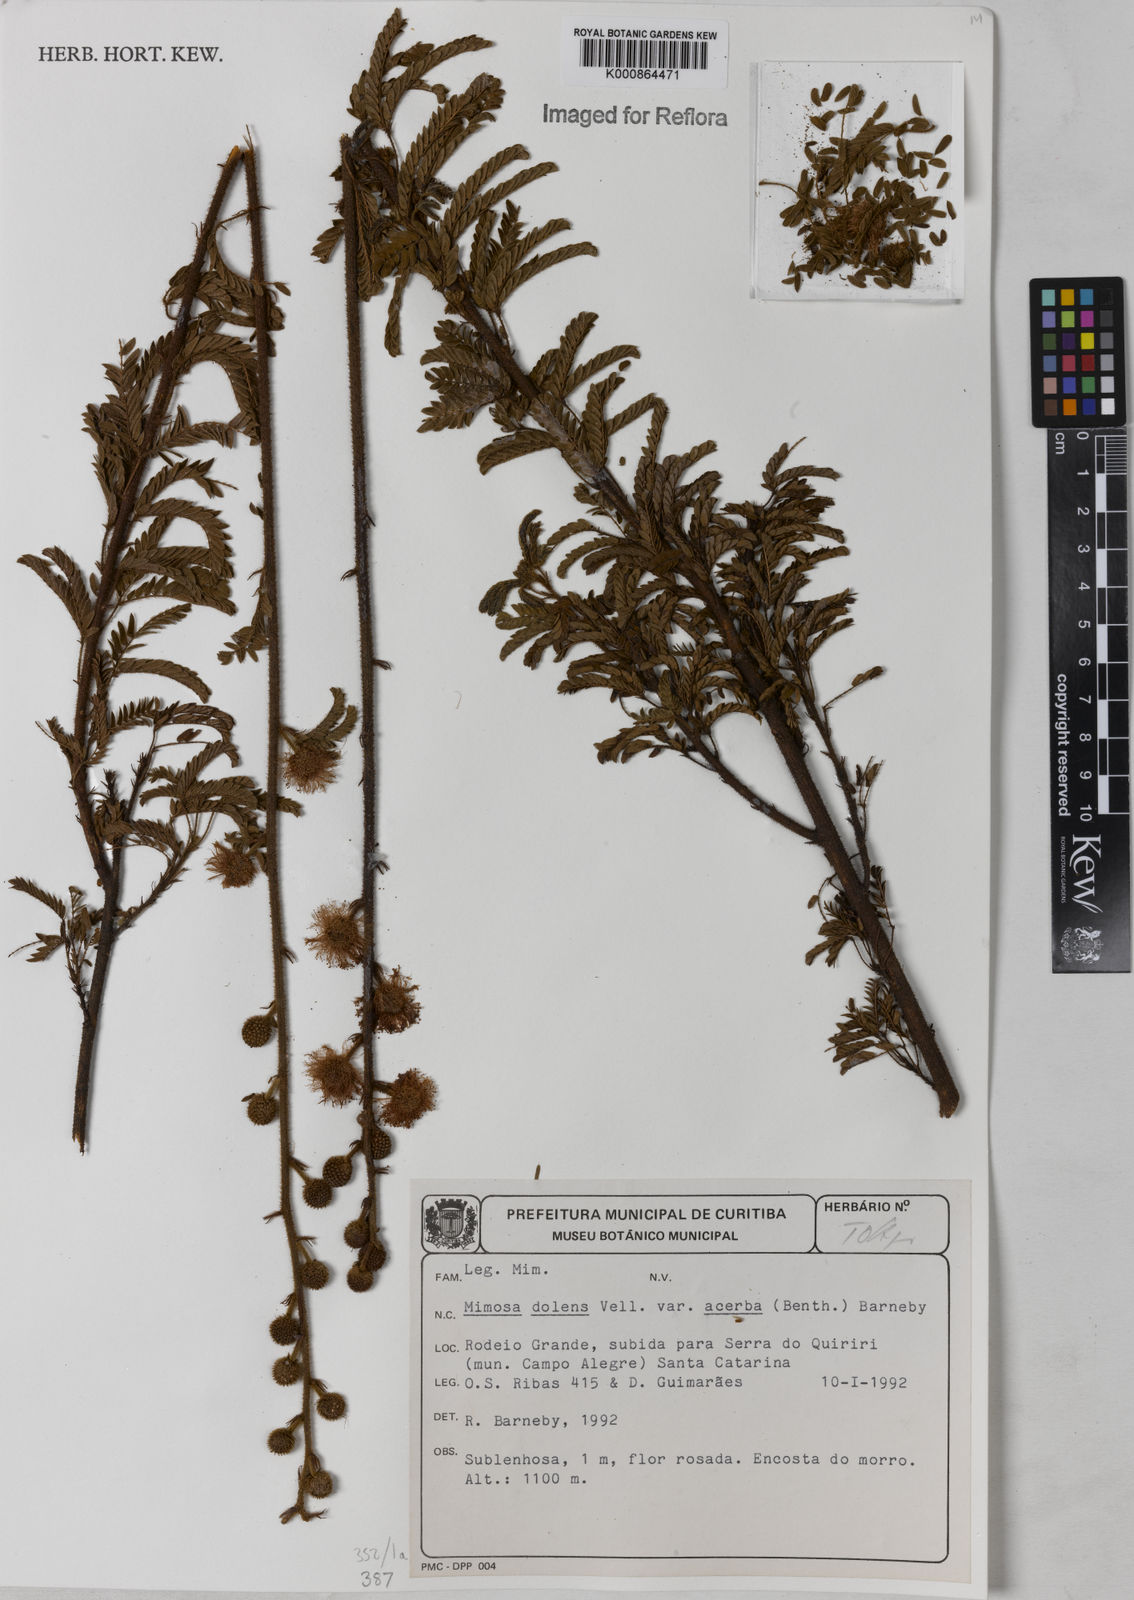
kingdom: Plantae
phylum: Tracheophyta
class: Magnoliopsida
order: Fabales
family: Fabaceae
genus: Mimosa
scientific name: Mimosa dolens
